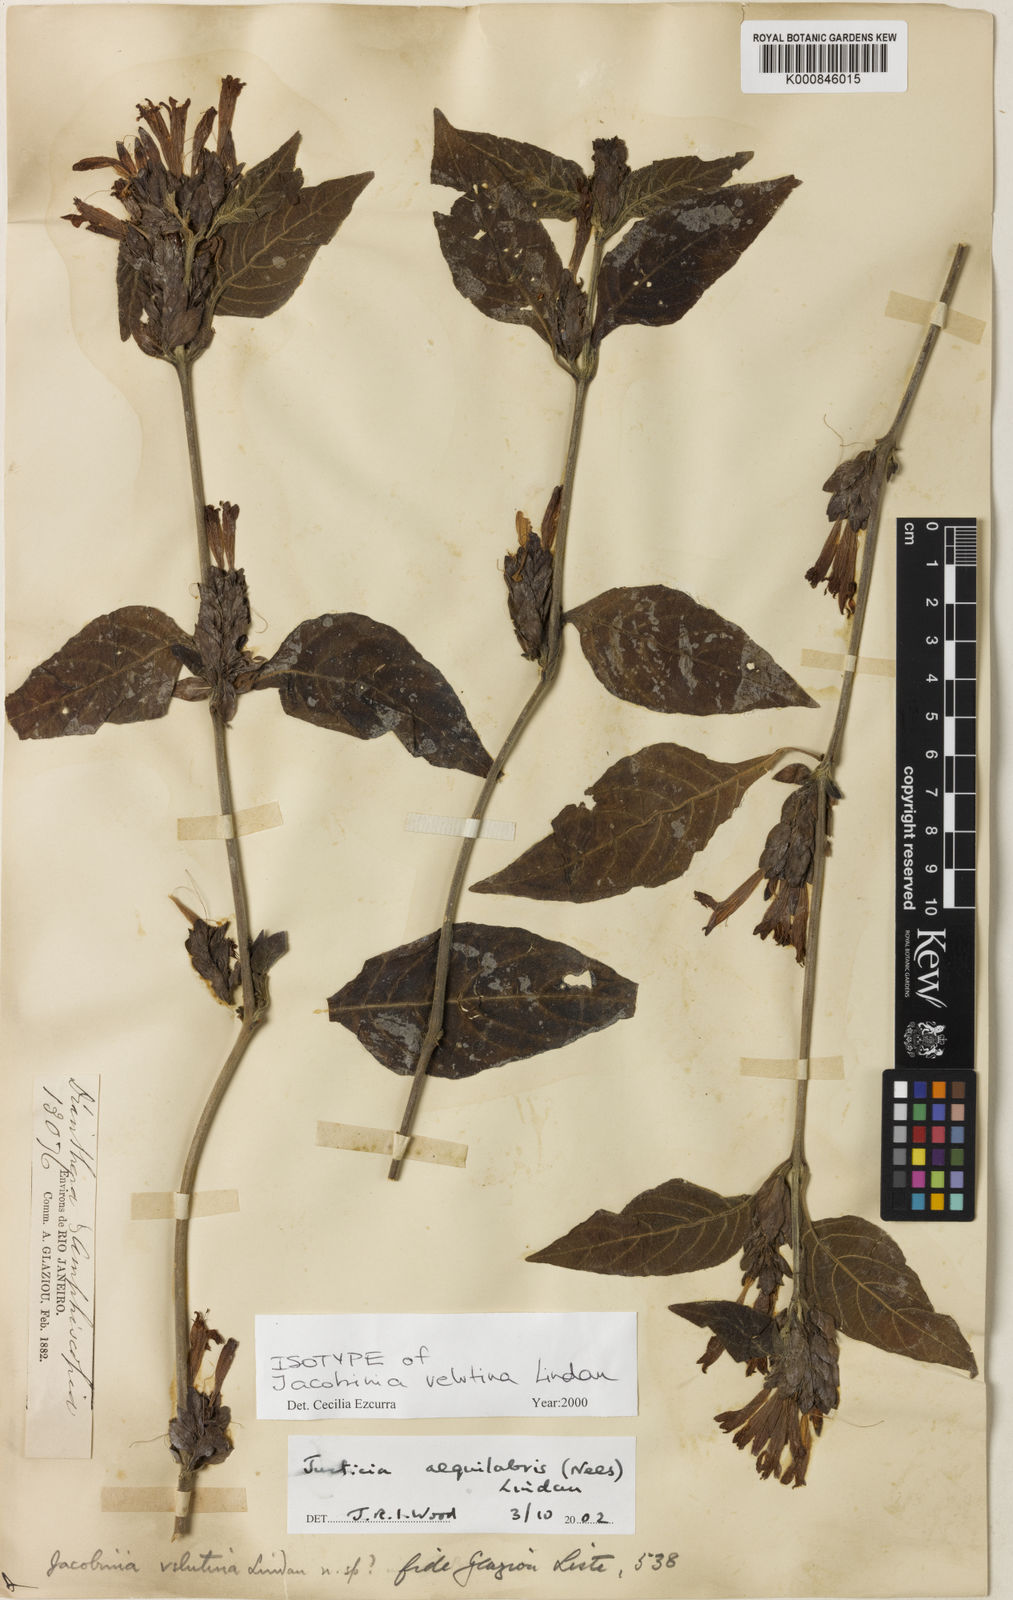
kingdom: Plantae
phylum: Tracheophyta
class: Magnoliopsida
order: Lamiales
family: Acanthaceae
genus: Justicia
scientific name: Justicia aequilabris
